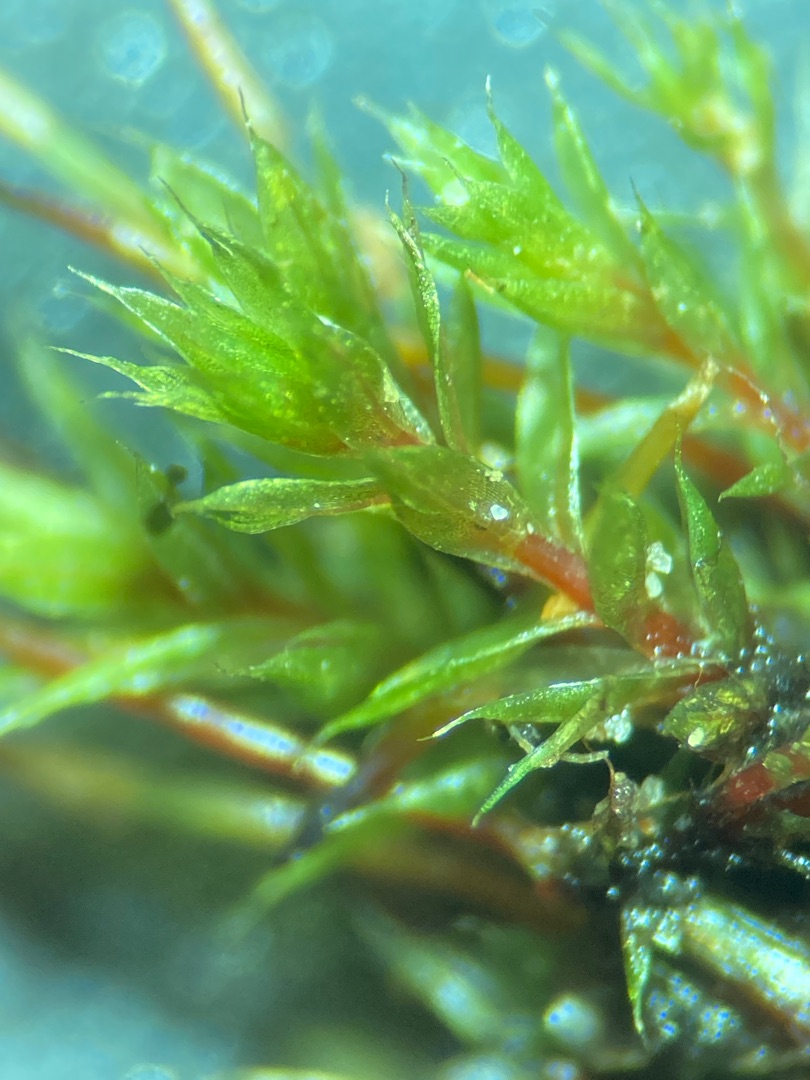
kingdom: Plantae
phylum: Bryophyta
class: Bryopsida
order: Bryales
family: Bryaceae
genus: Ptychostomum
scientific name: Ptychostomum pseudotriquetrum
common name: Nedløbende bryum
